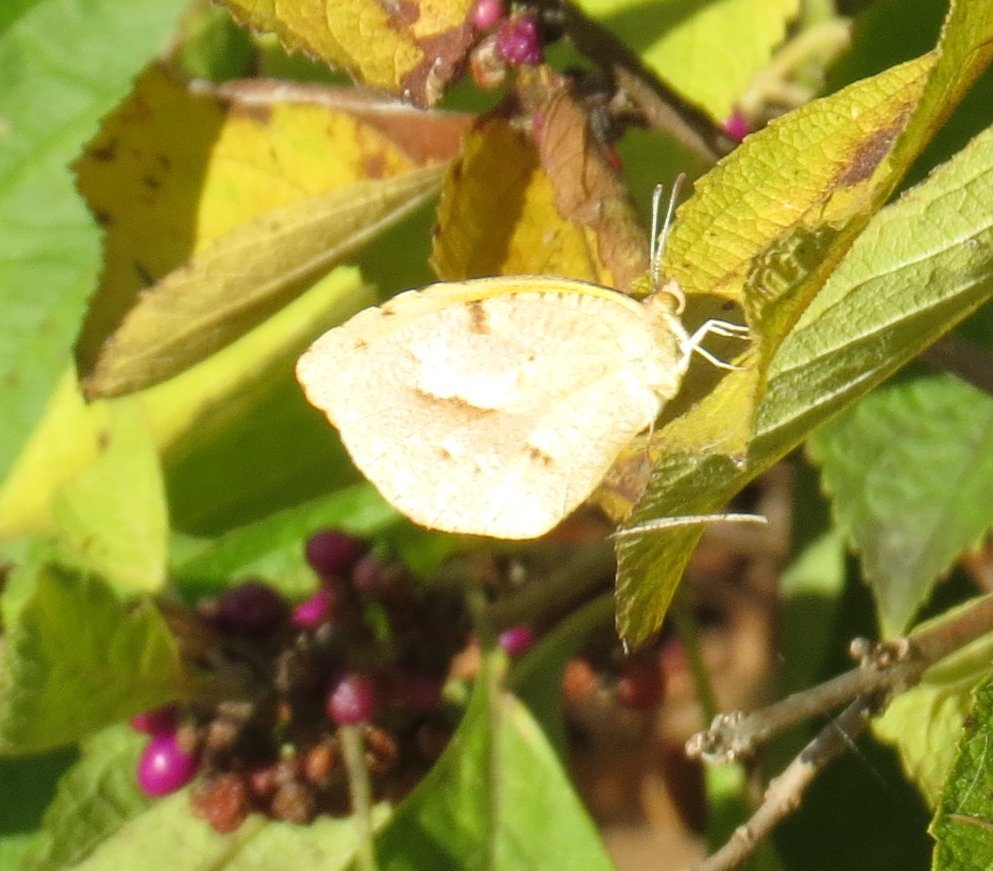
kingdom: Animalia
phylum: Arthropoda
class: Insecta
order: Lepidoptera
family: Pieridae
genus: Abaeis
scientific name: Abaeis nicippe
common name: Sleepy Orange
